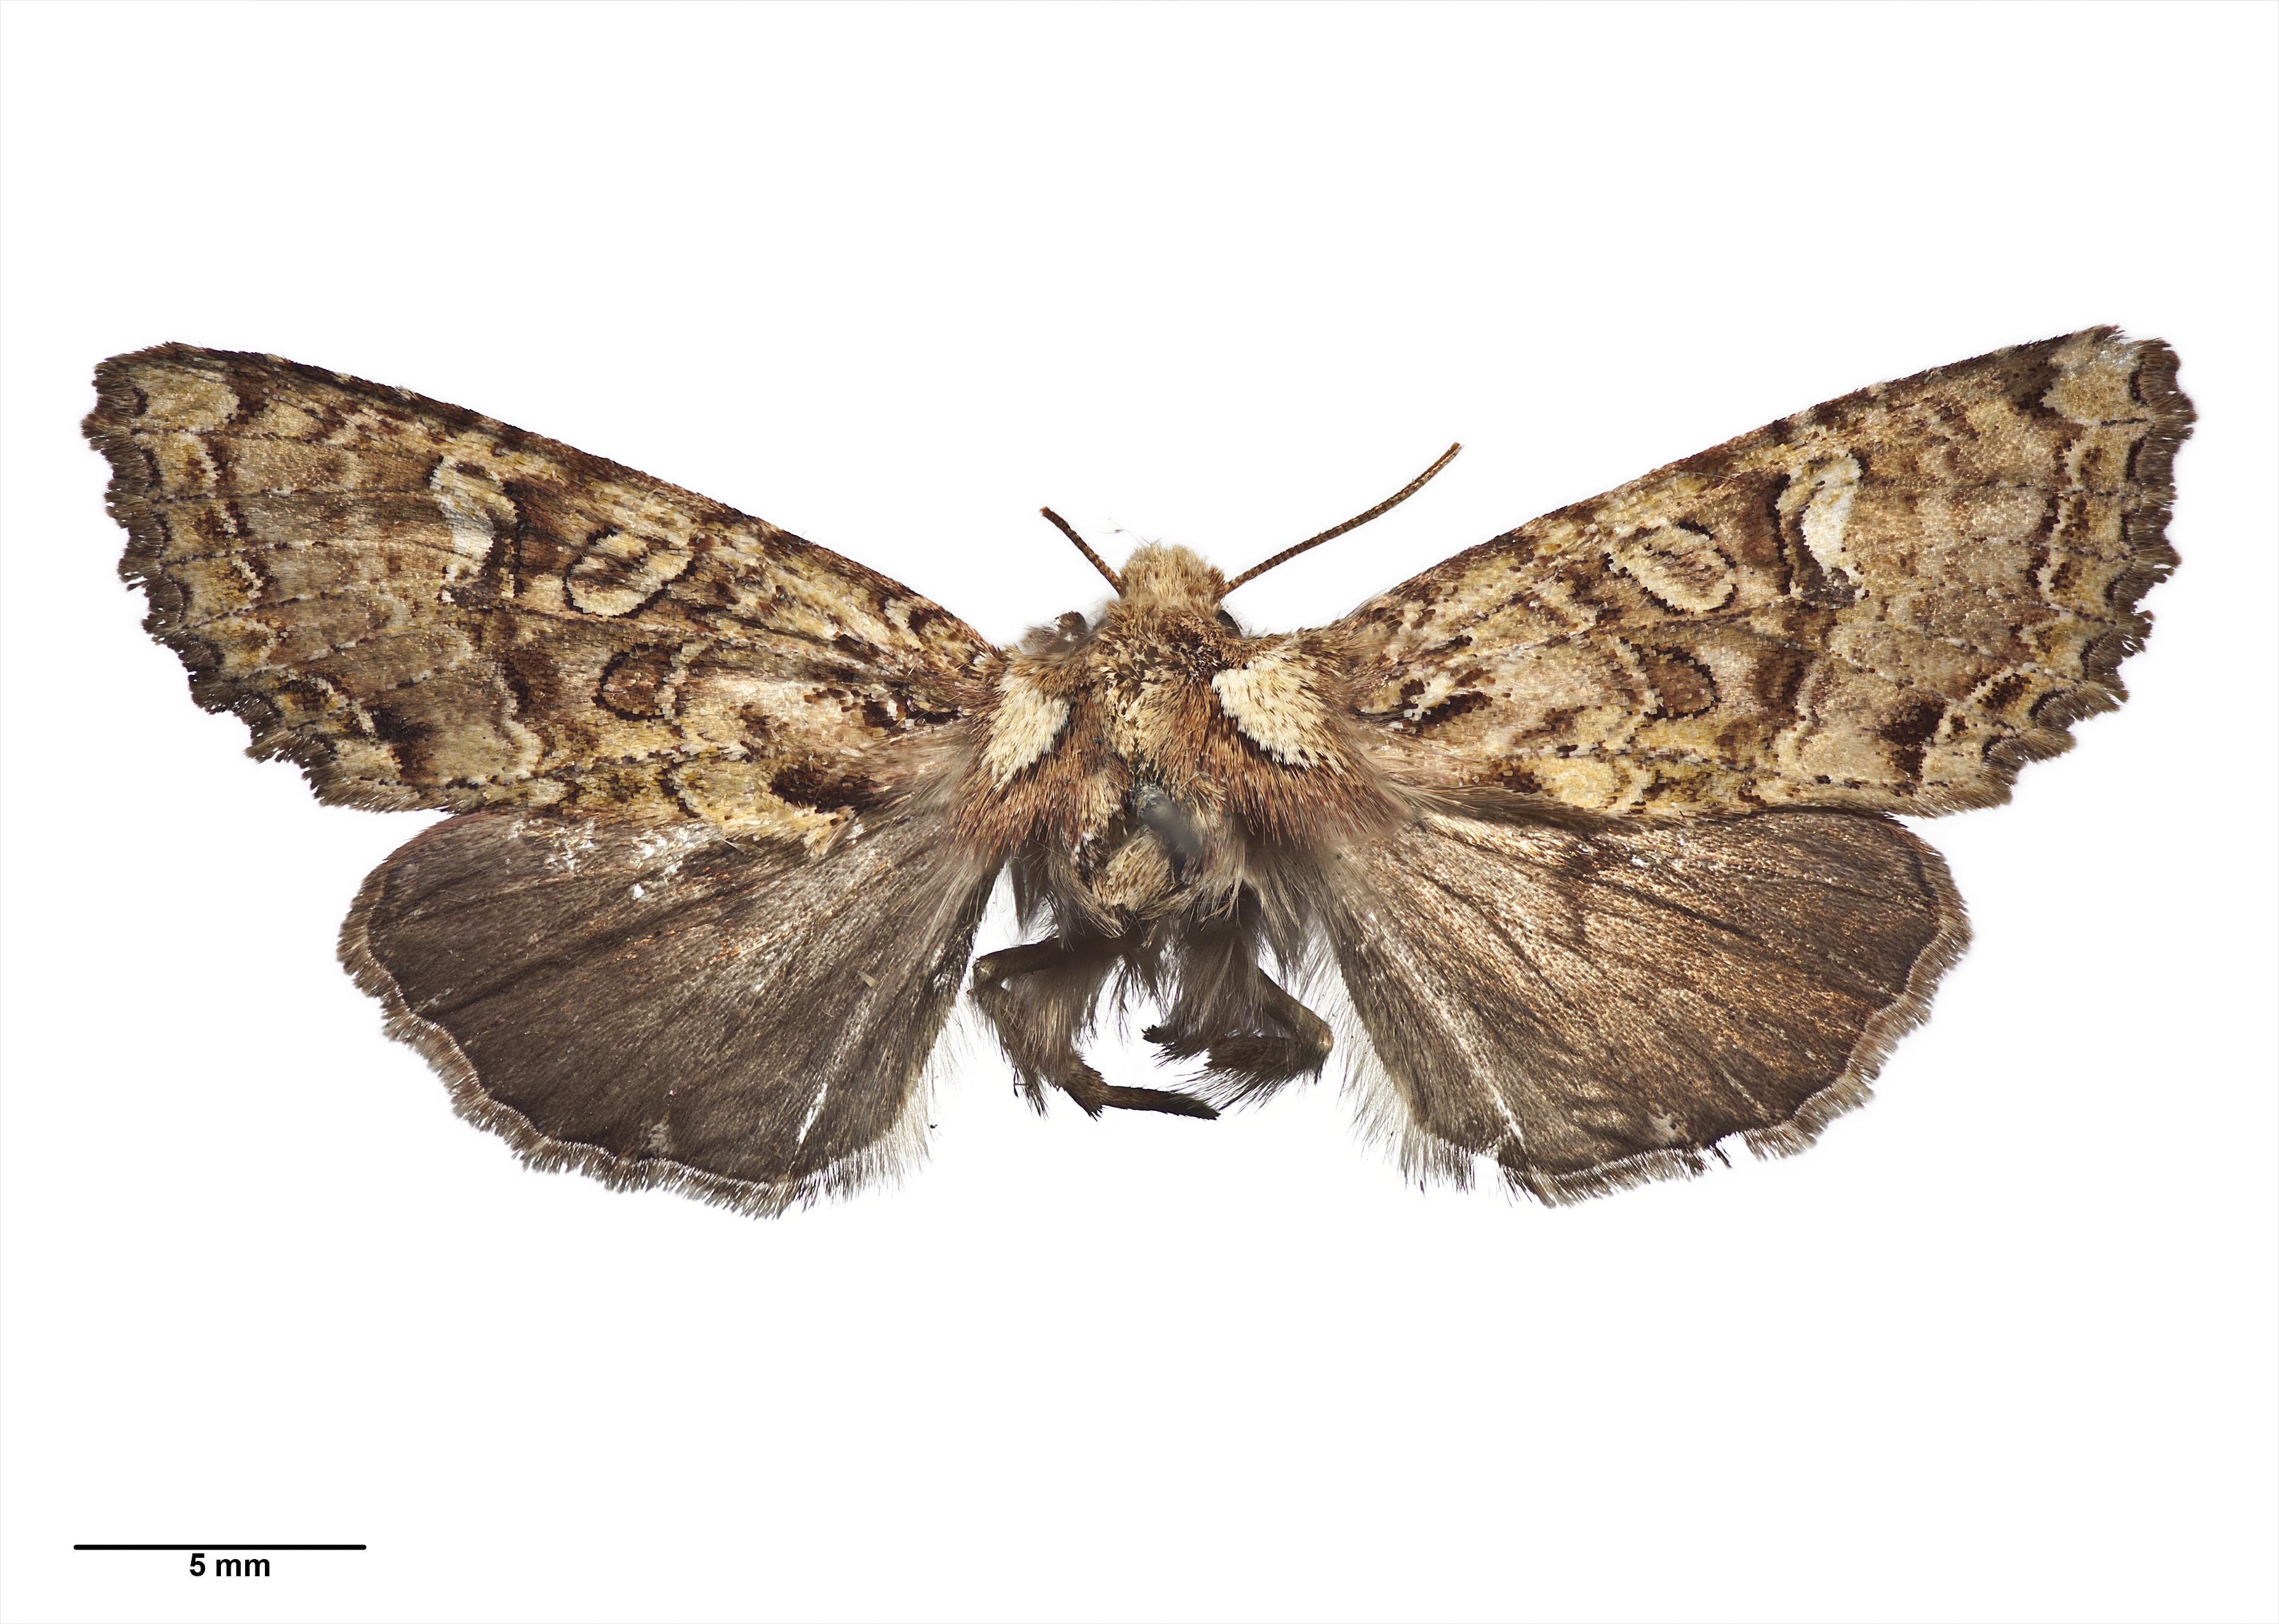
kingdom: Animalia
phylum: Arthropoda
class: Ostracoda
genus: Morrisonia
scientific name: Morrisonia praesignis
